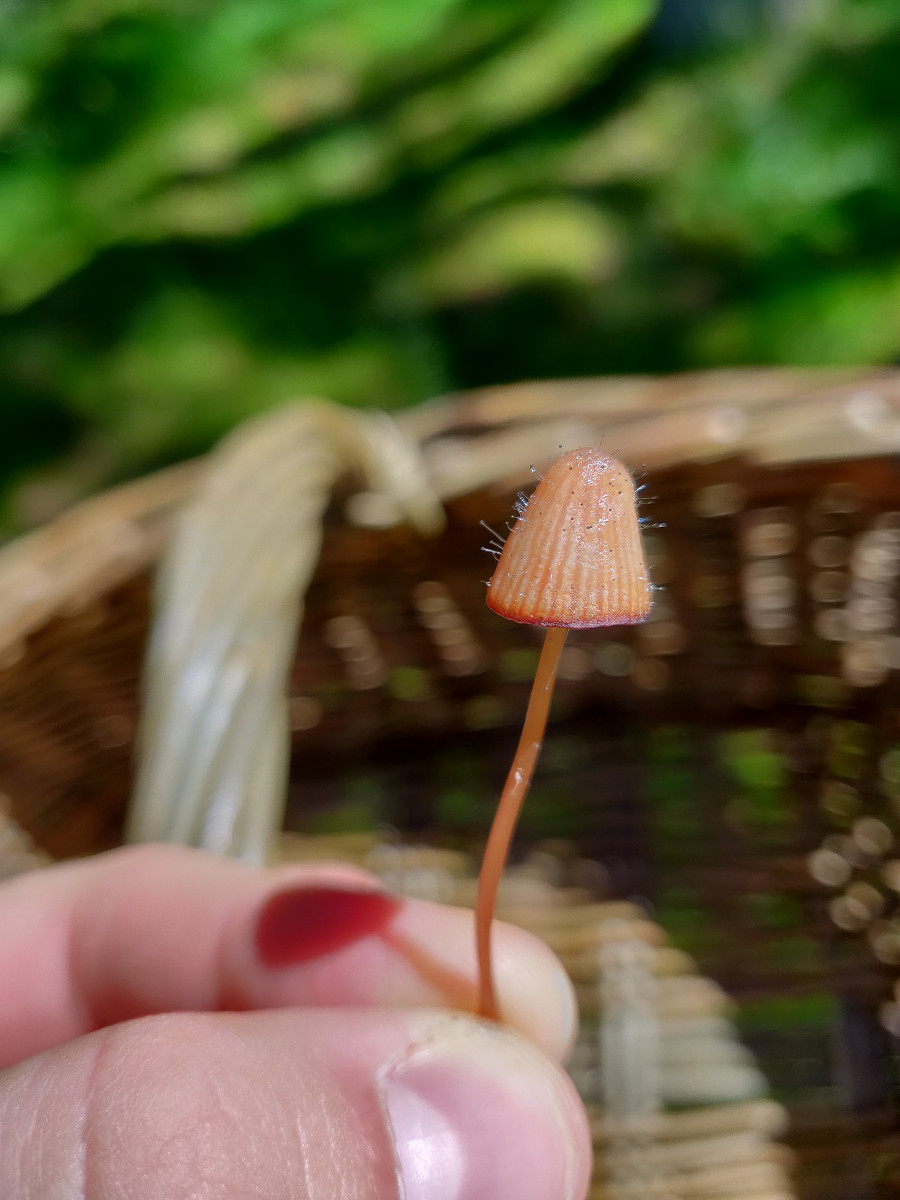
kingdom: Fungi
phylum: Mucoromycota
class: Mucoromycetes
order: Mucorales
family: Phycomycetaceae
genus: Spinellus
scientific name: Spinellus fusiger
